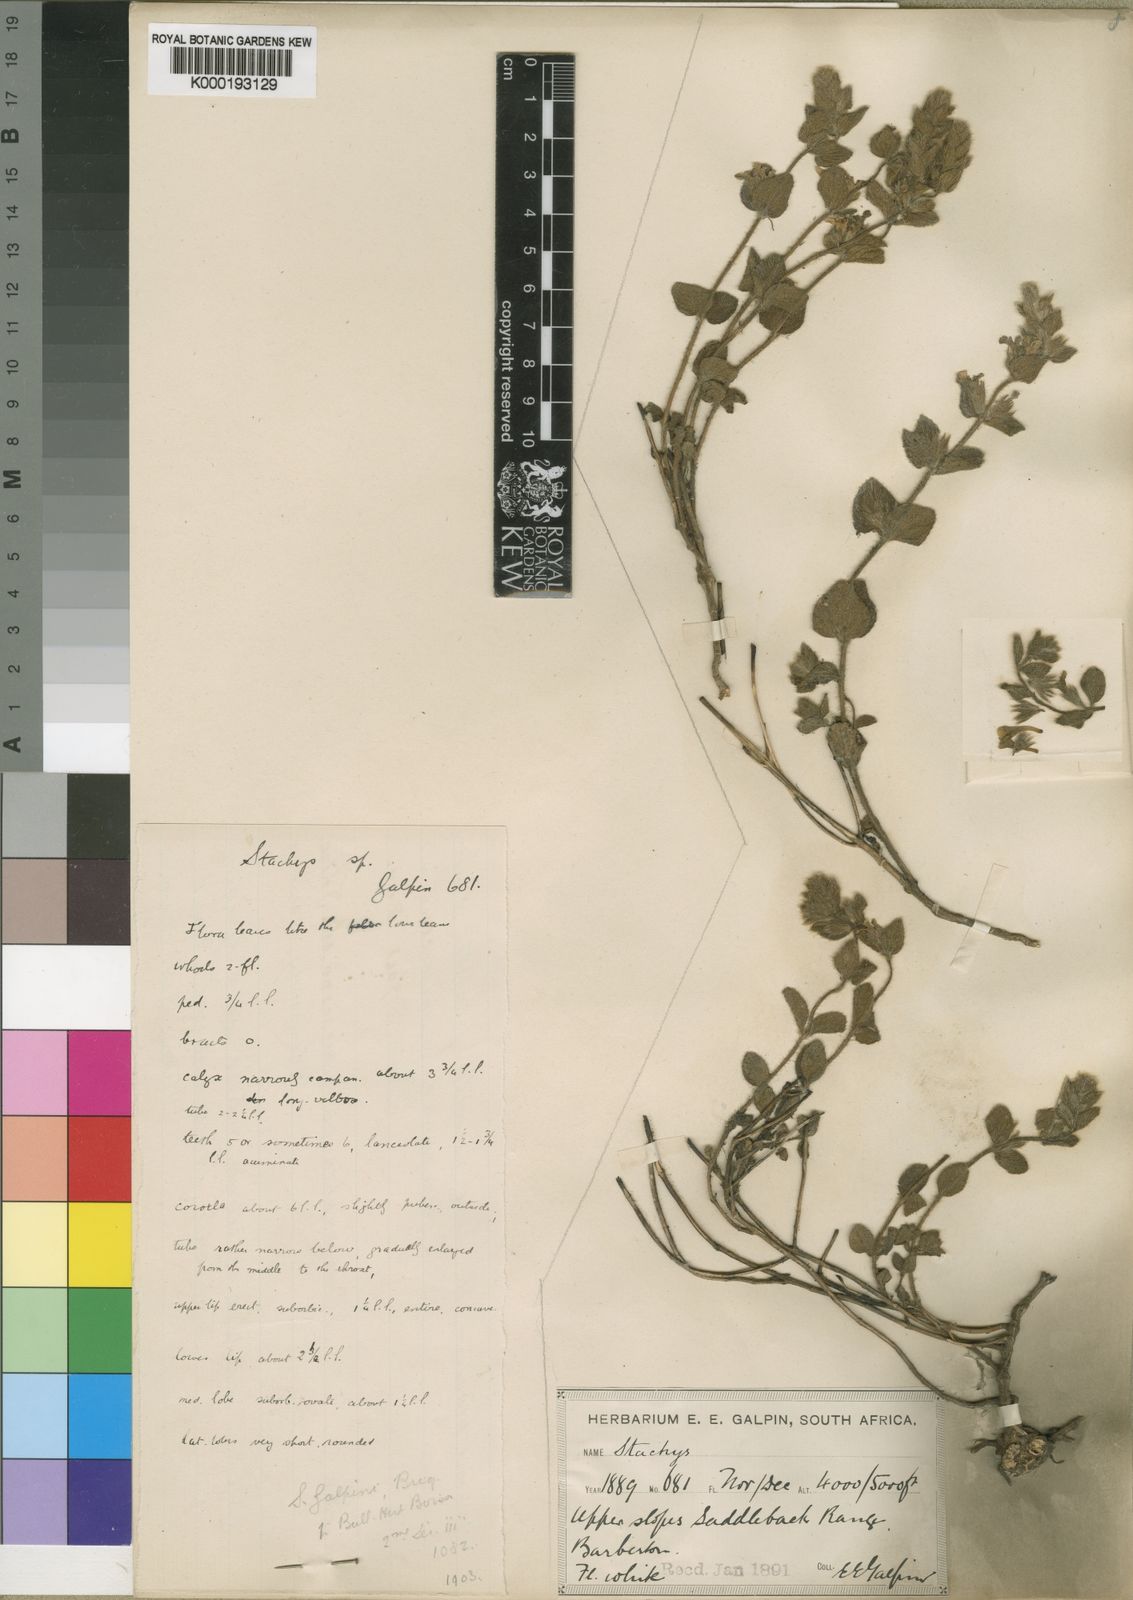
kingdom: Plantae
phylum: Tracheophyta
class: Magnoliopsida
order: Lamiales
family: Lamiaceae
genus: Stachys
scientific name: Stachys natalensis
